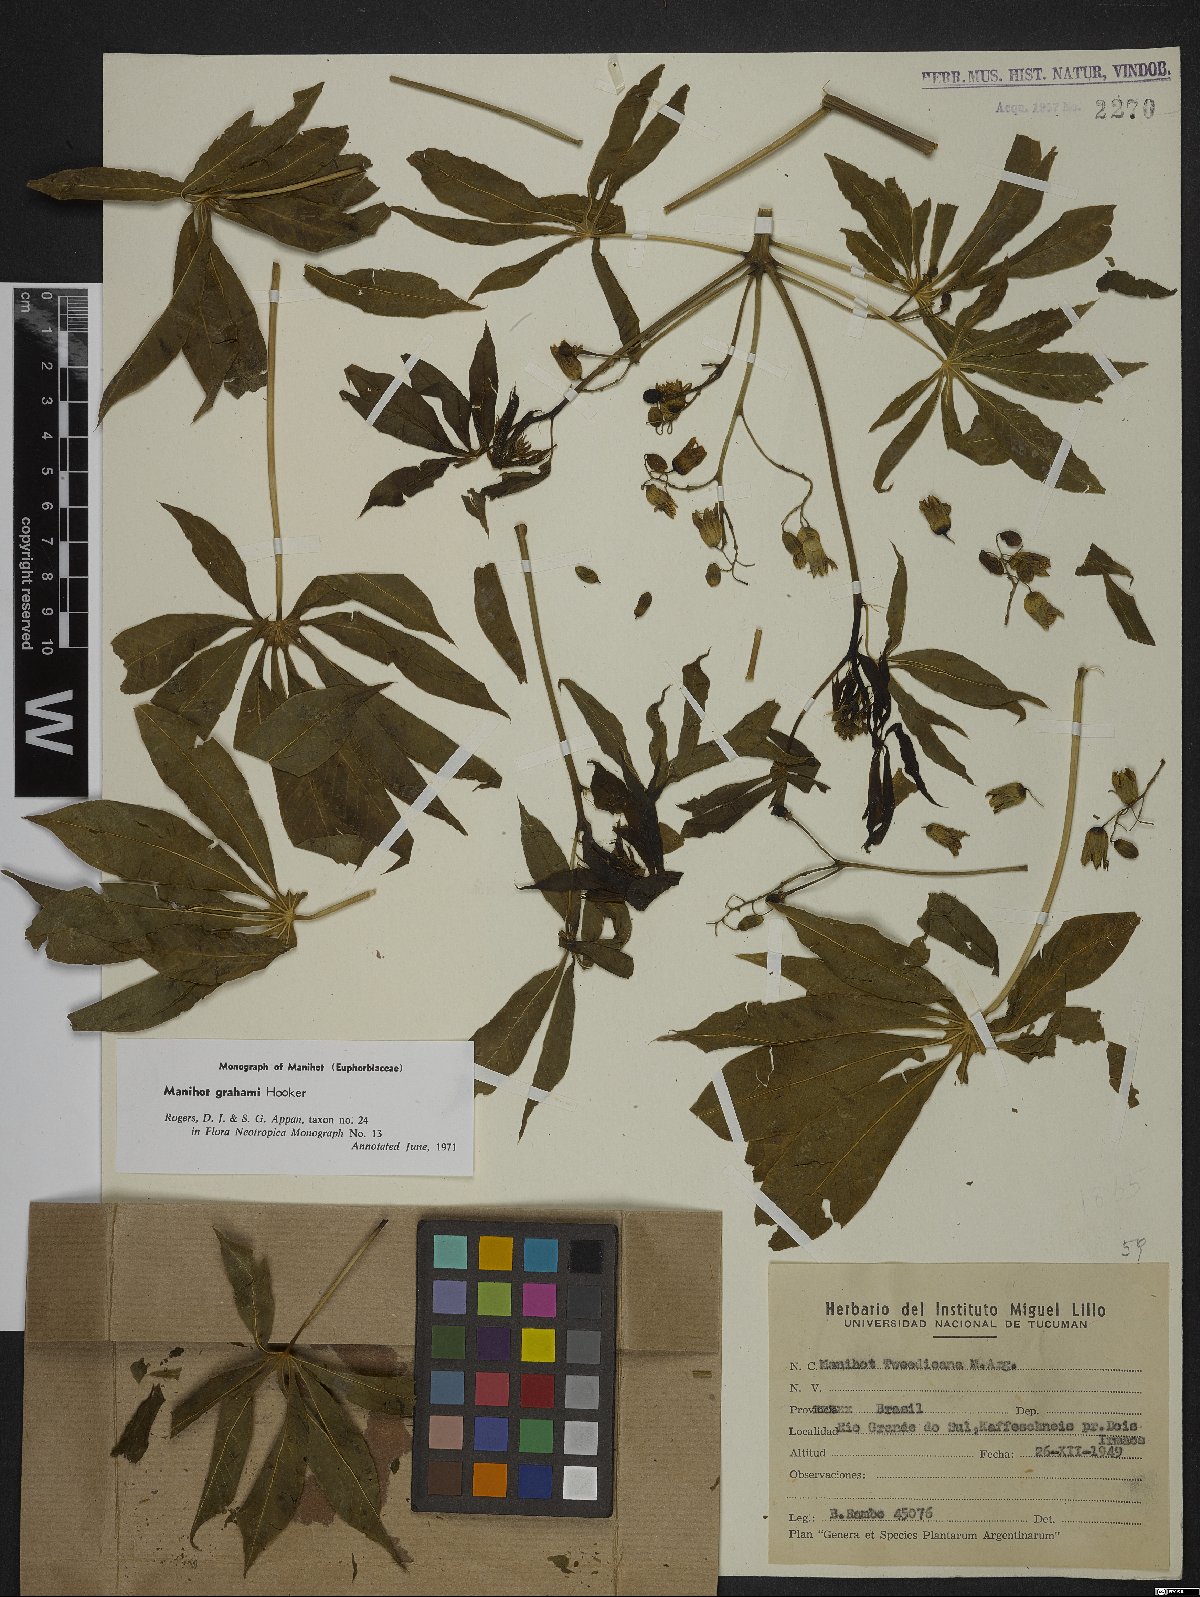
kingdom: Plantae
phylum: Tracheophyta
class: Magnoliopsida
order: Malpighiales
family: Euphorbiaceae
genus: Manihot
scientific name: Manihot grahamii
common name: Graham's manihot
